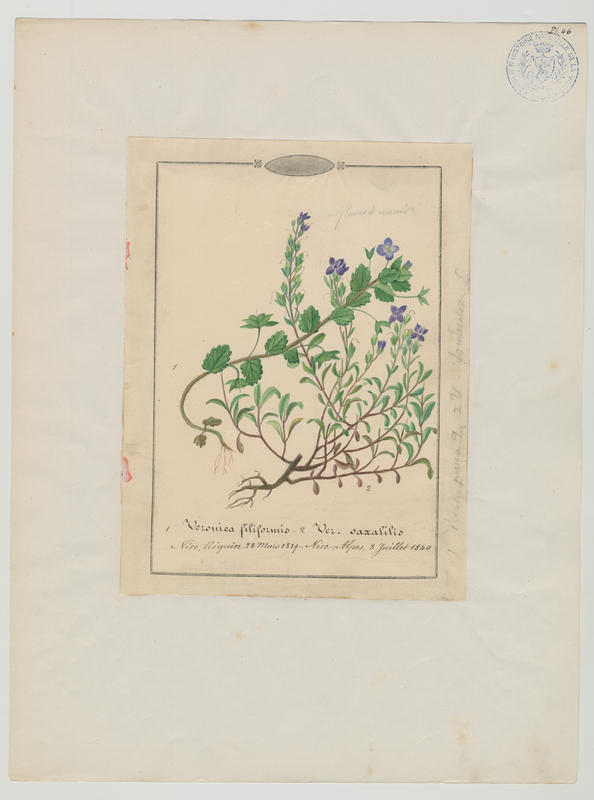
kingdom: Plantae
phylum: Tracheophyta
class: Magnoliopsida
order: Lamiales
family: Plantaginaceae
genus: Veronica
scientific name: Veronica fruticans
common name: Rock speedwell
